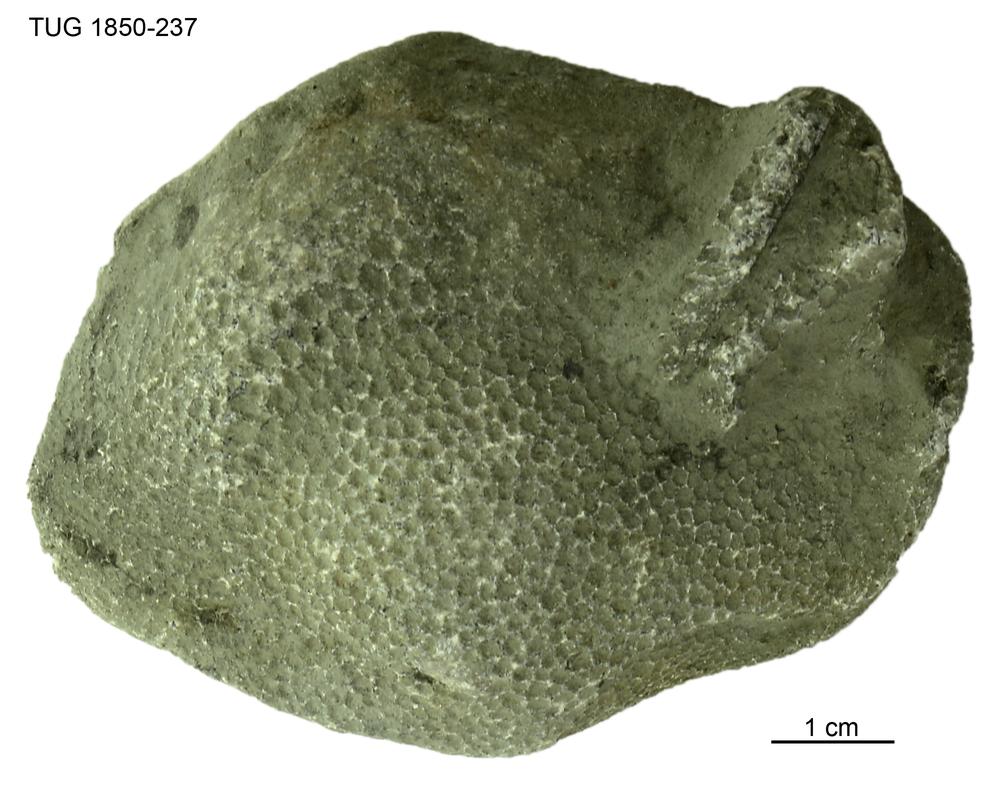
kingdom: Animalia
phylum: Cnidaria
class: Anthozoa
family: Favositidae
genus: Favosites
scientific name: Favosites
